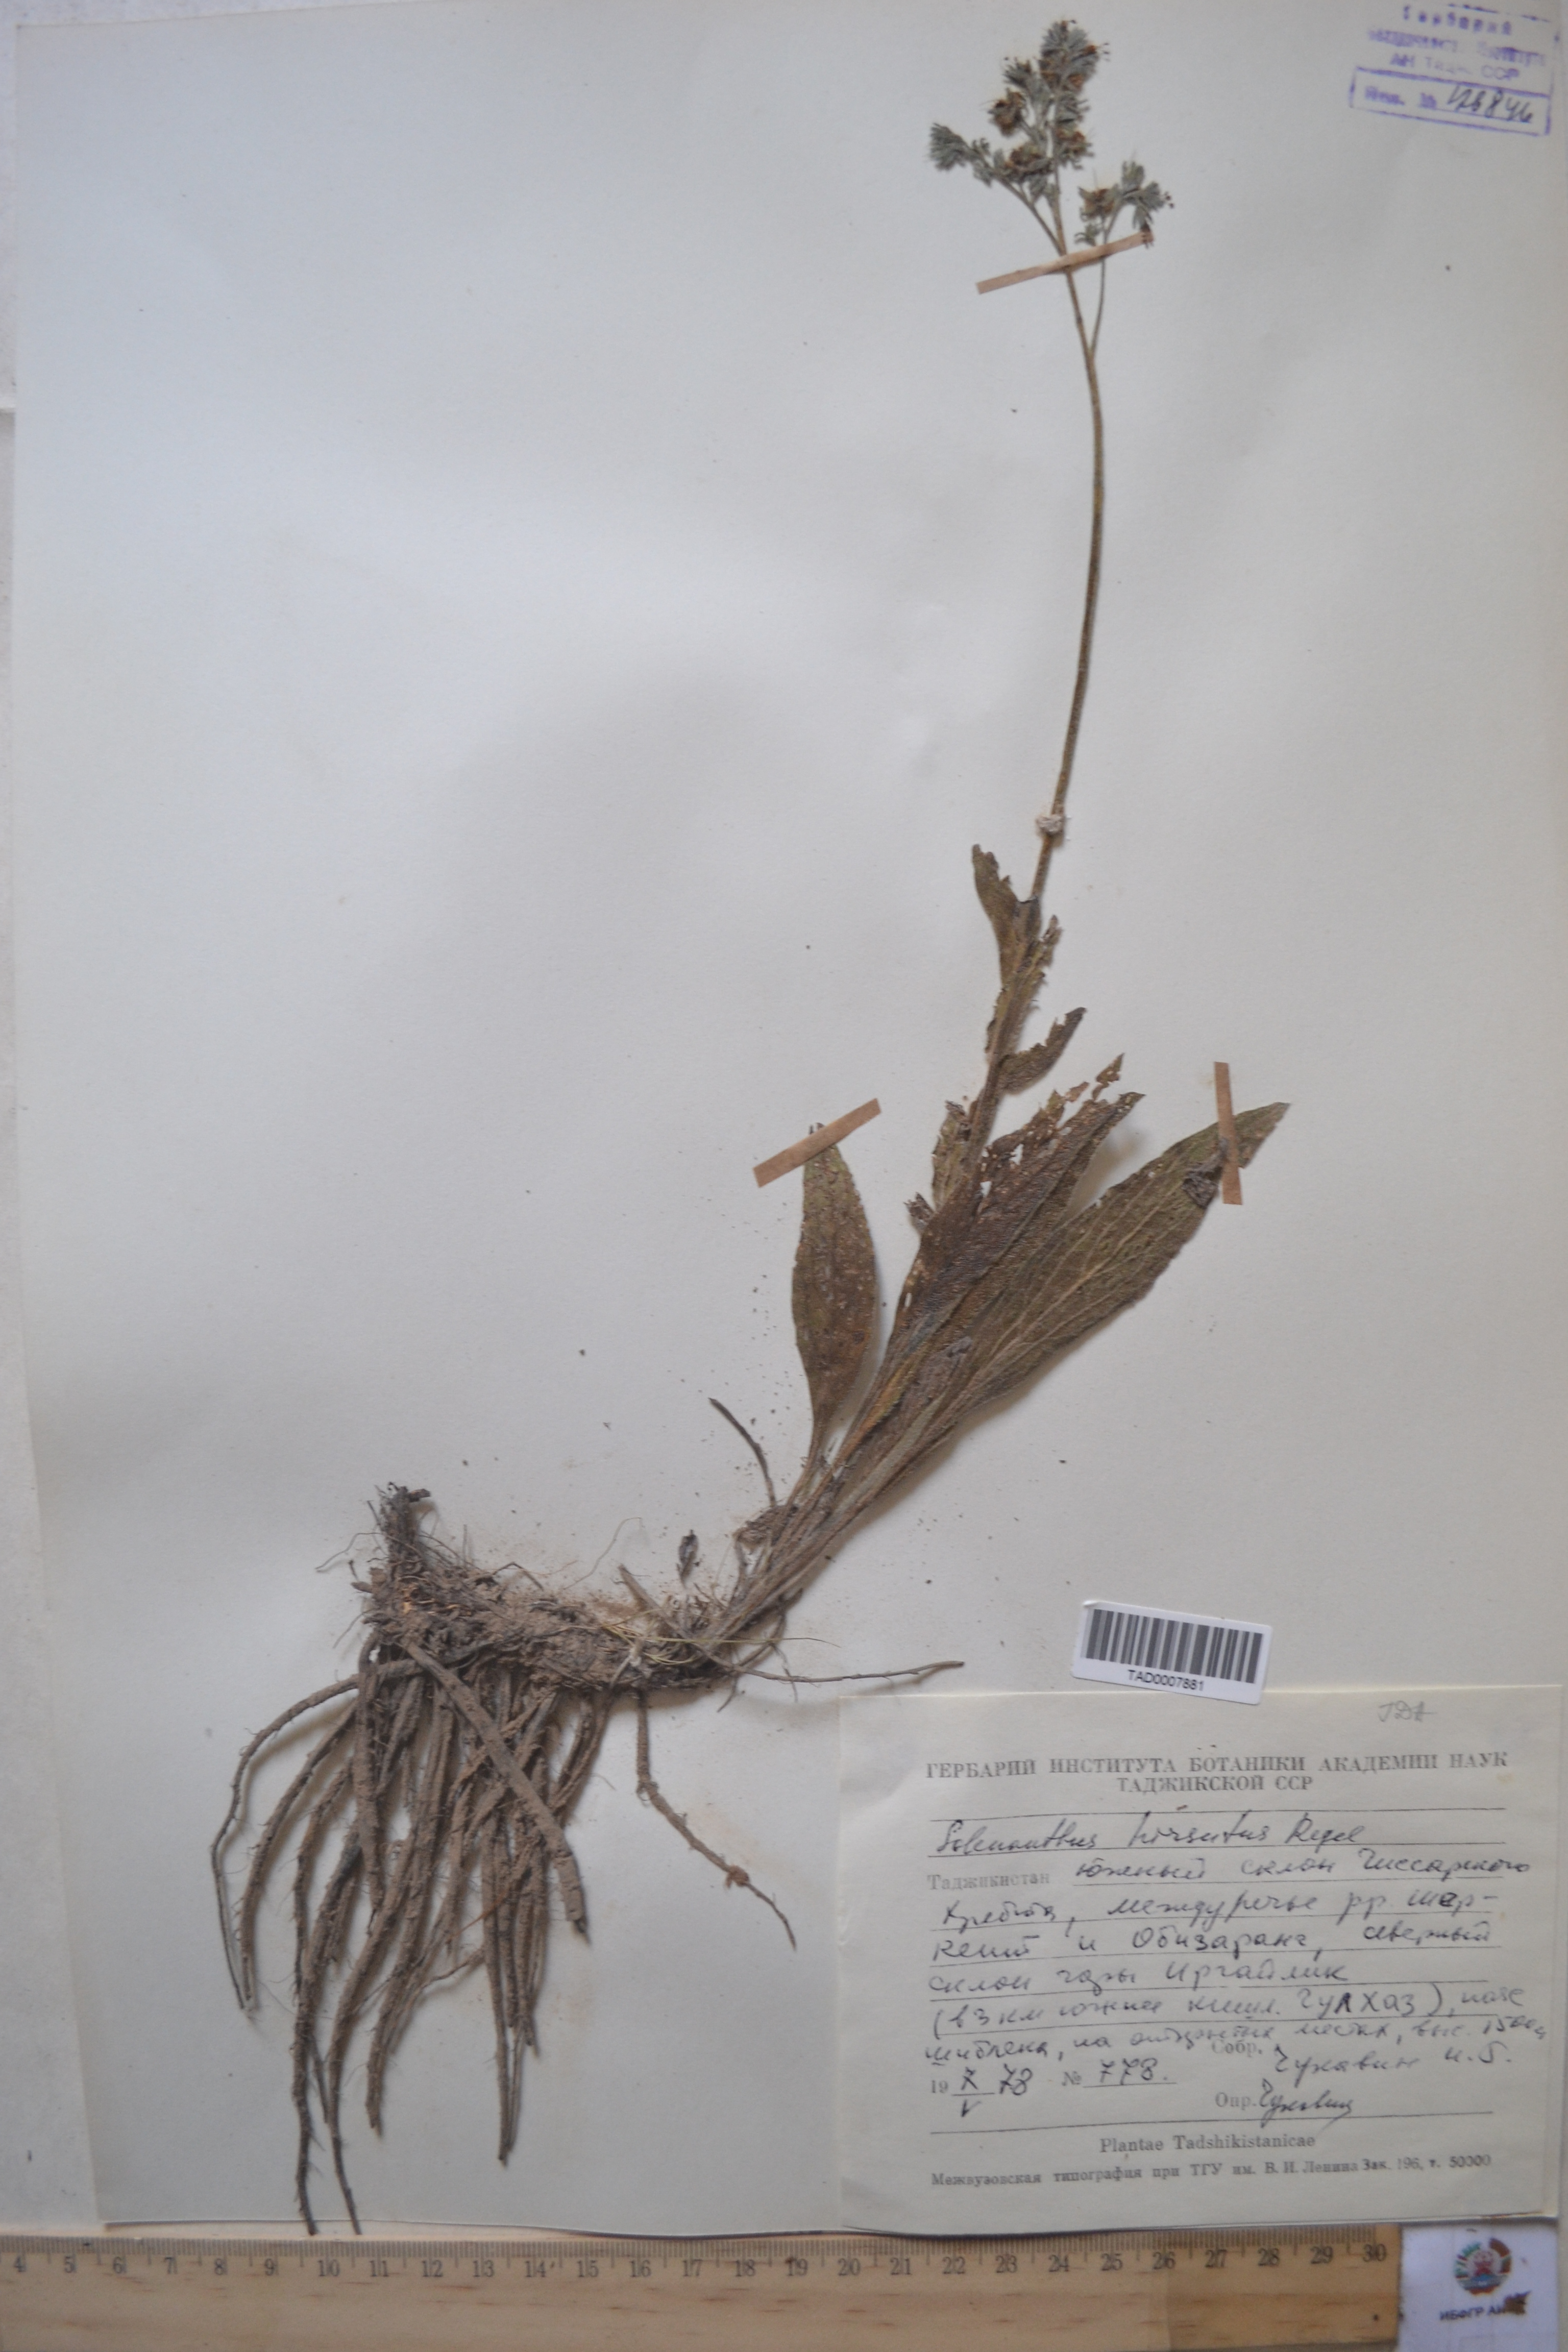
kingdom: Plantae
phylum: Tracheophyta
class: Magnoliopsida
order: Boraginales
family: Boraginaceae
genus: Solenanthus
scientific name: Solenanthus hirsutus
